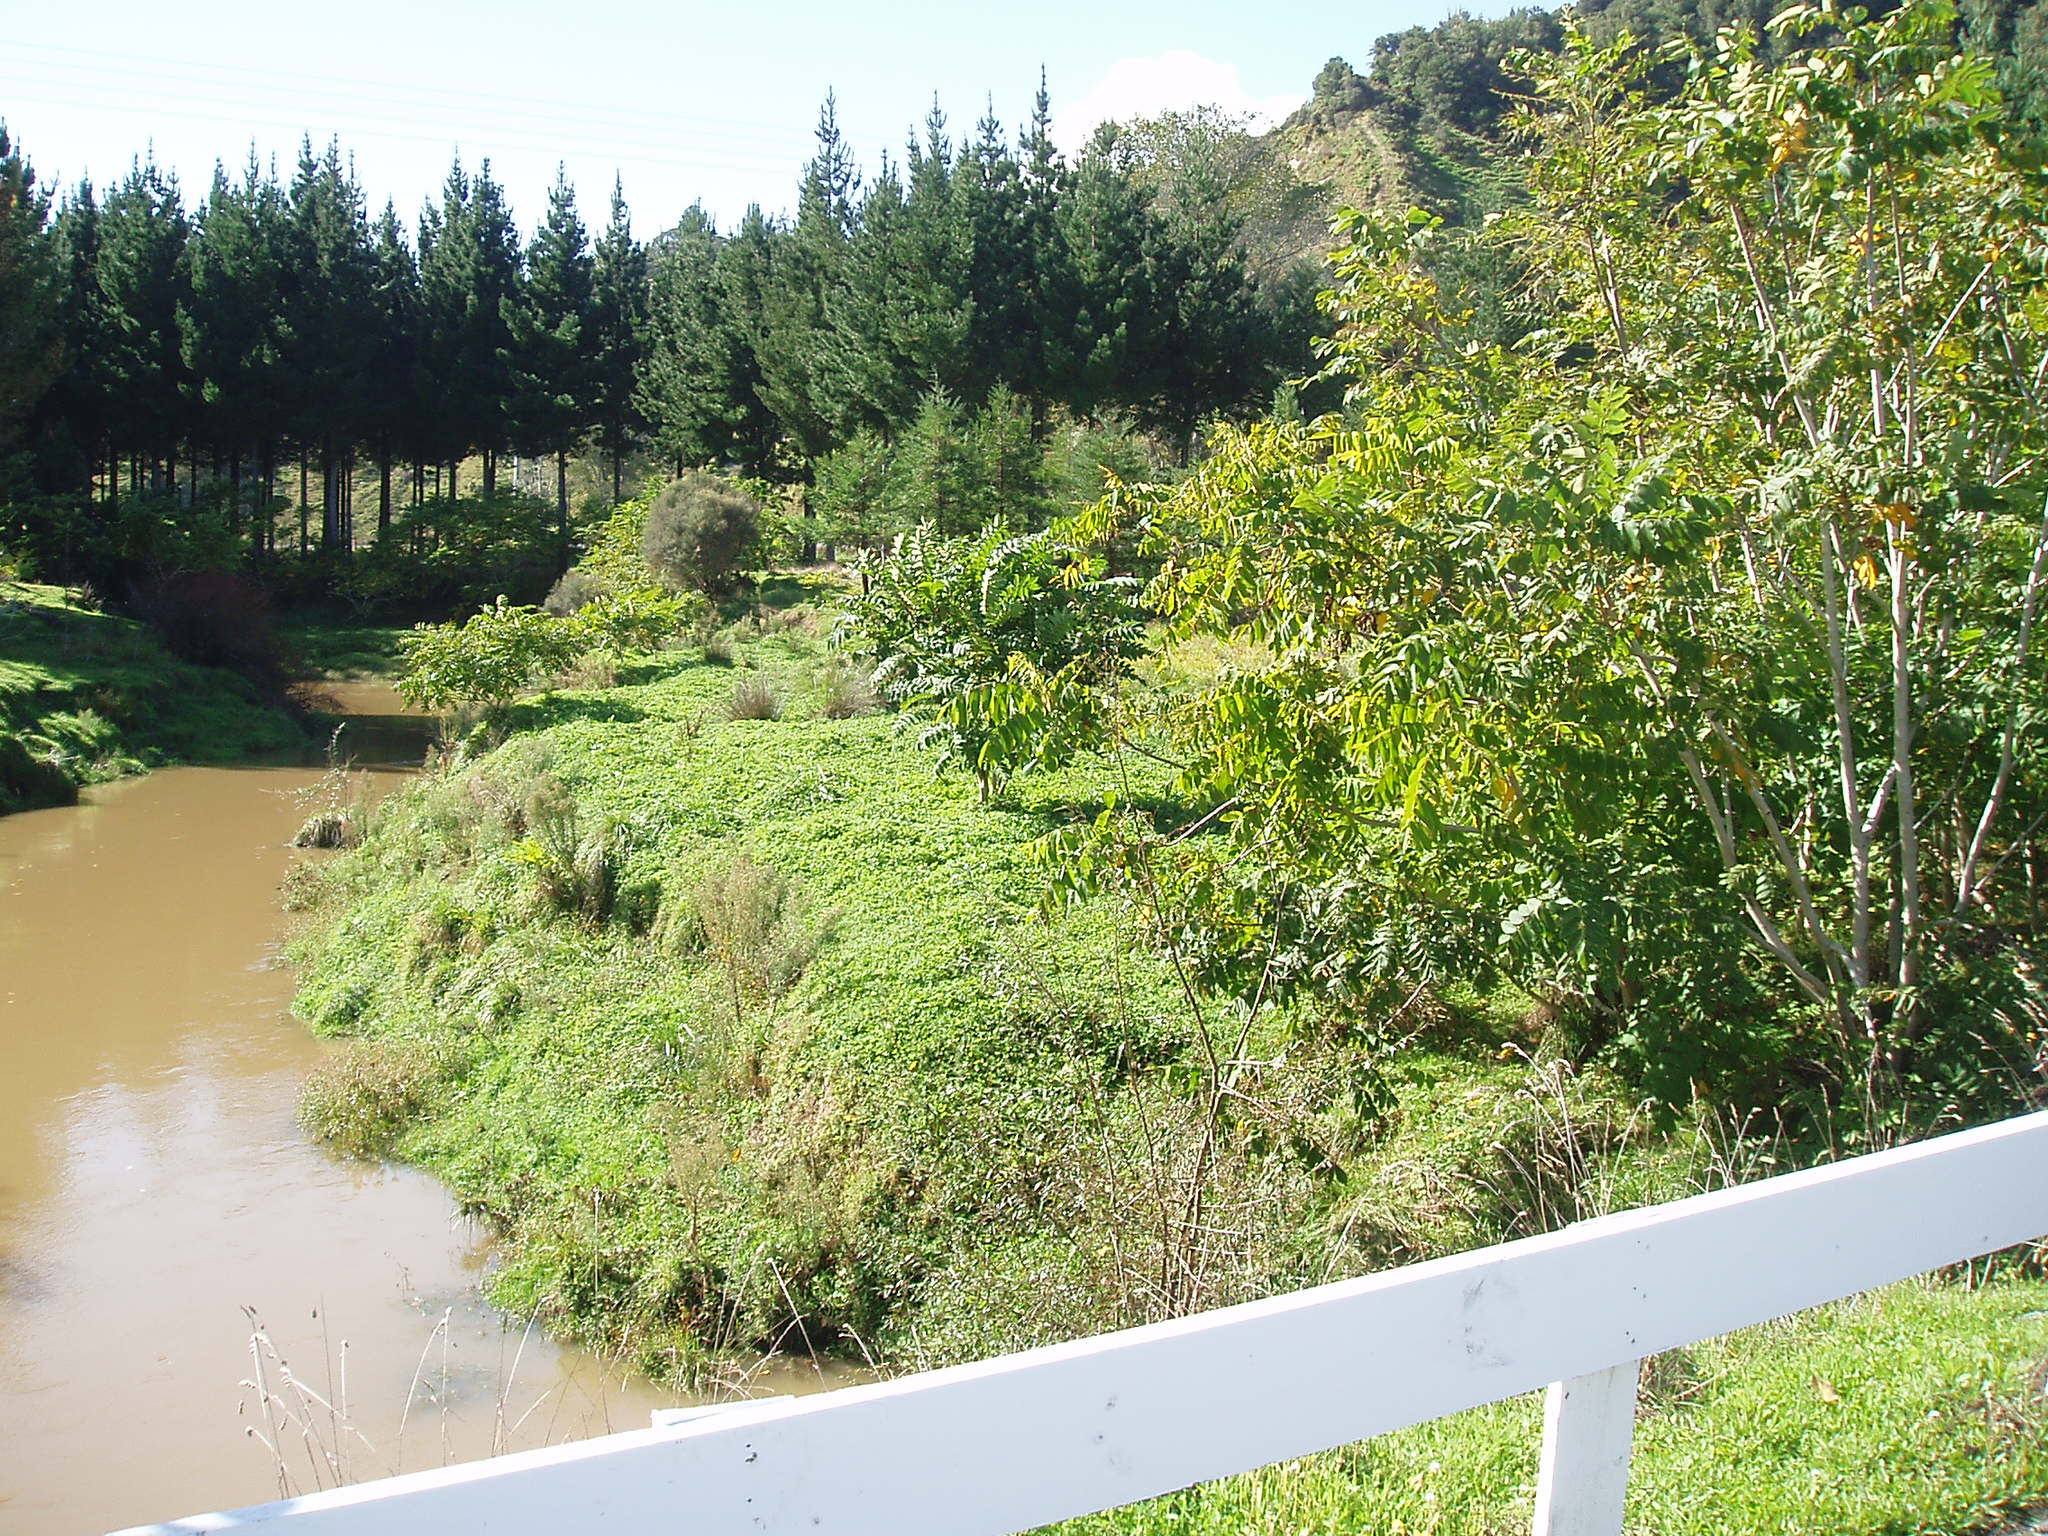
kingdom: Plantae
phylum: Tracheophyta
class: Magnoliopsida
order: Fagales
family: Juglandaceae
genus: Juglans
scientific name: Juglans ailantifolia
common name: Japanese walnut
